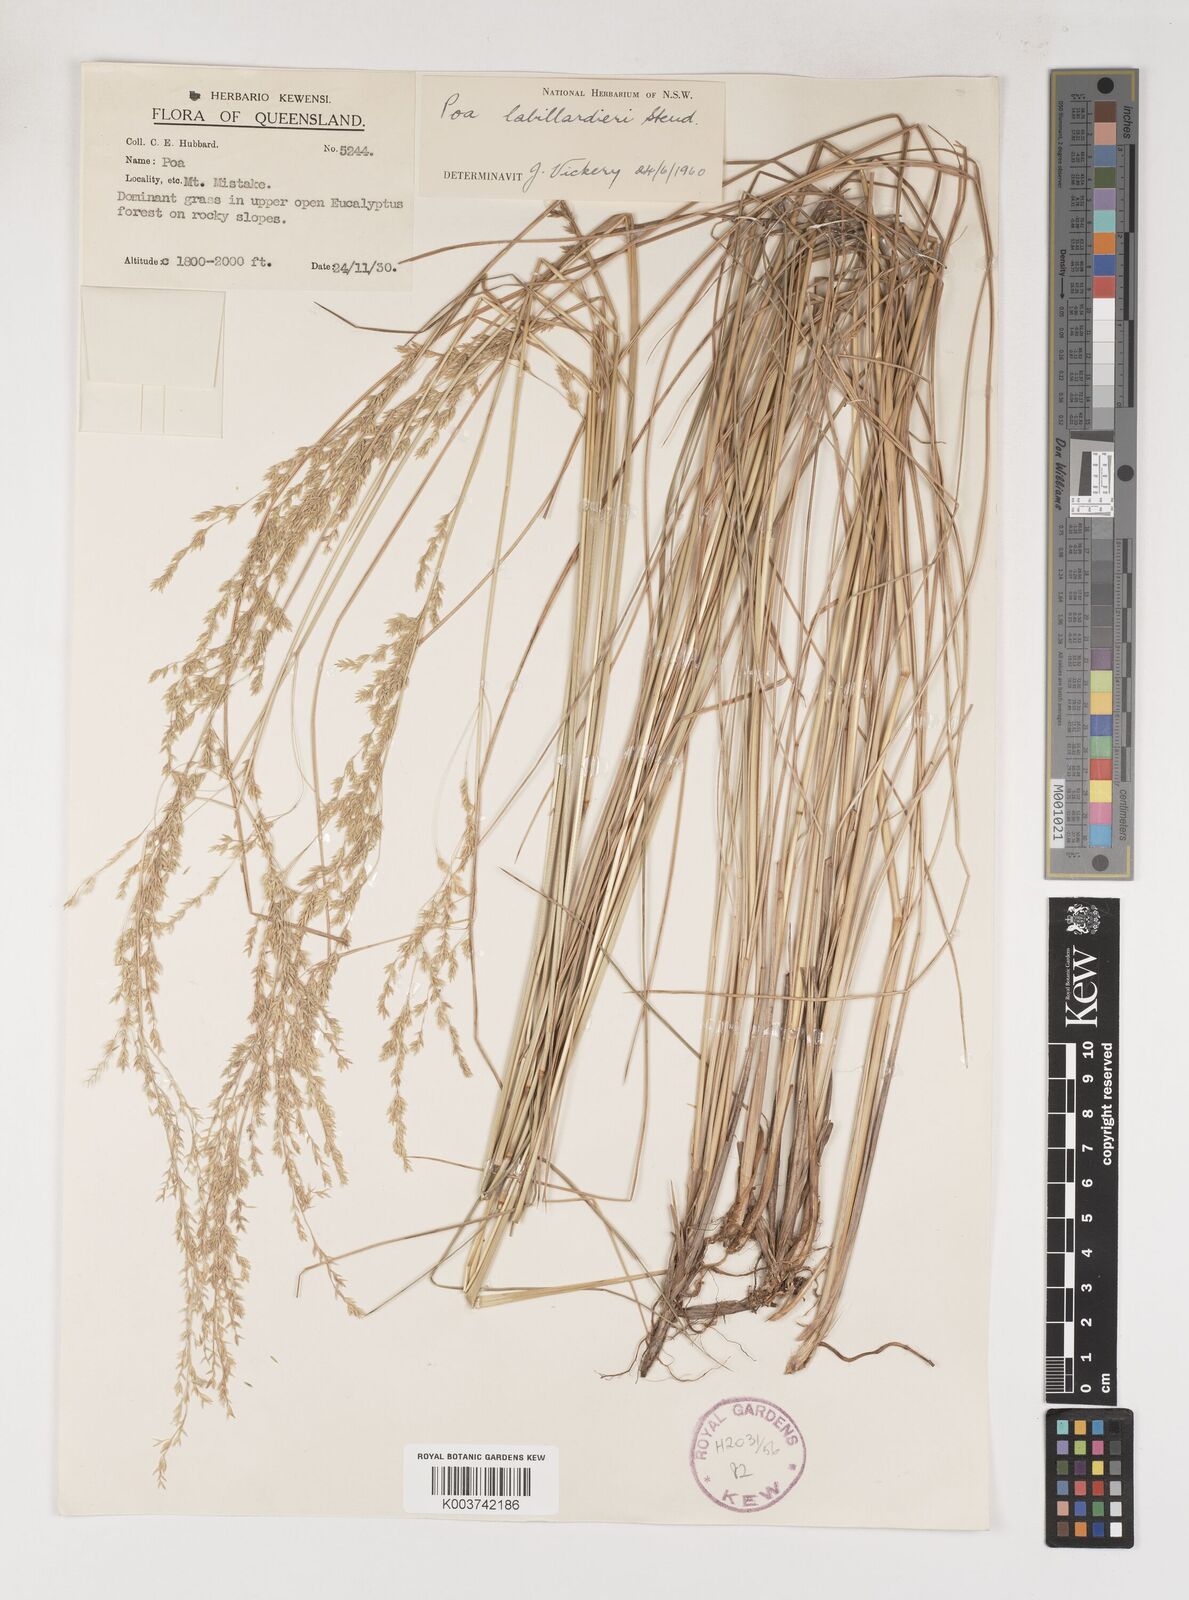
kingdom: Plantae
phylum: Tracheophyta
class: Liliopsida
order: Poales
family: Poaceae
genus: Poa
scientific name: Poa labillardierei
